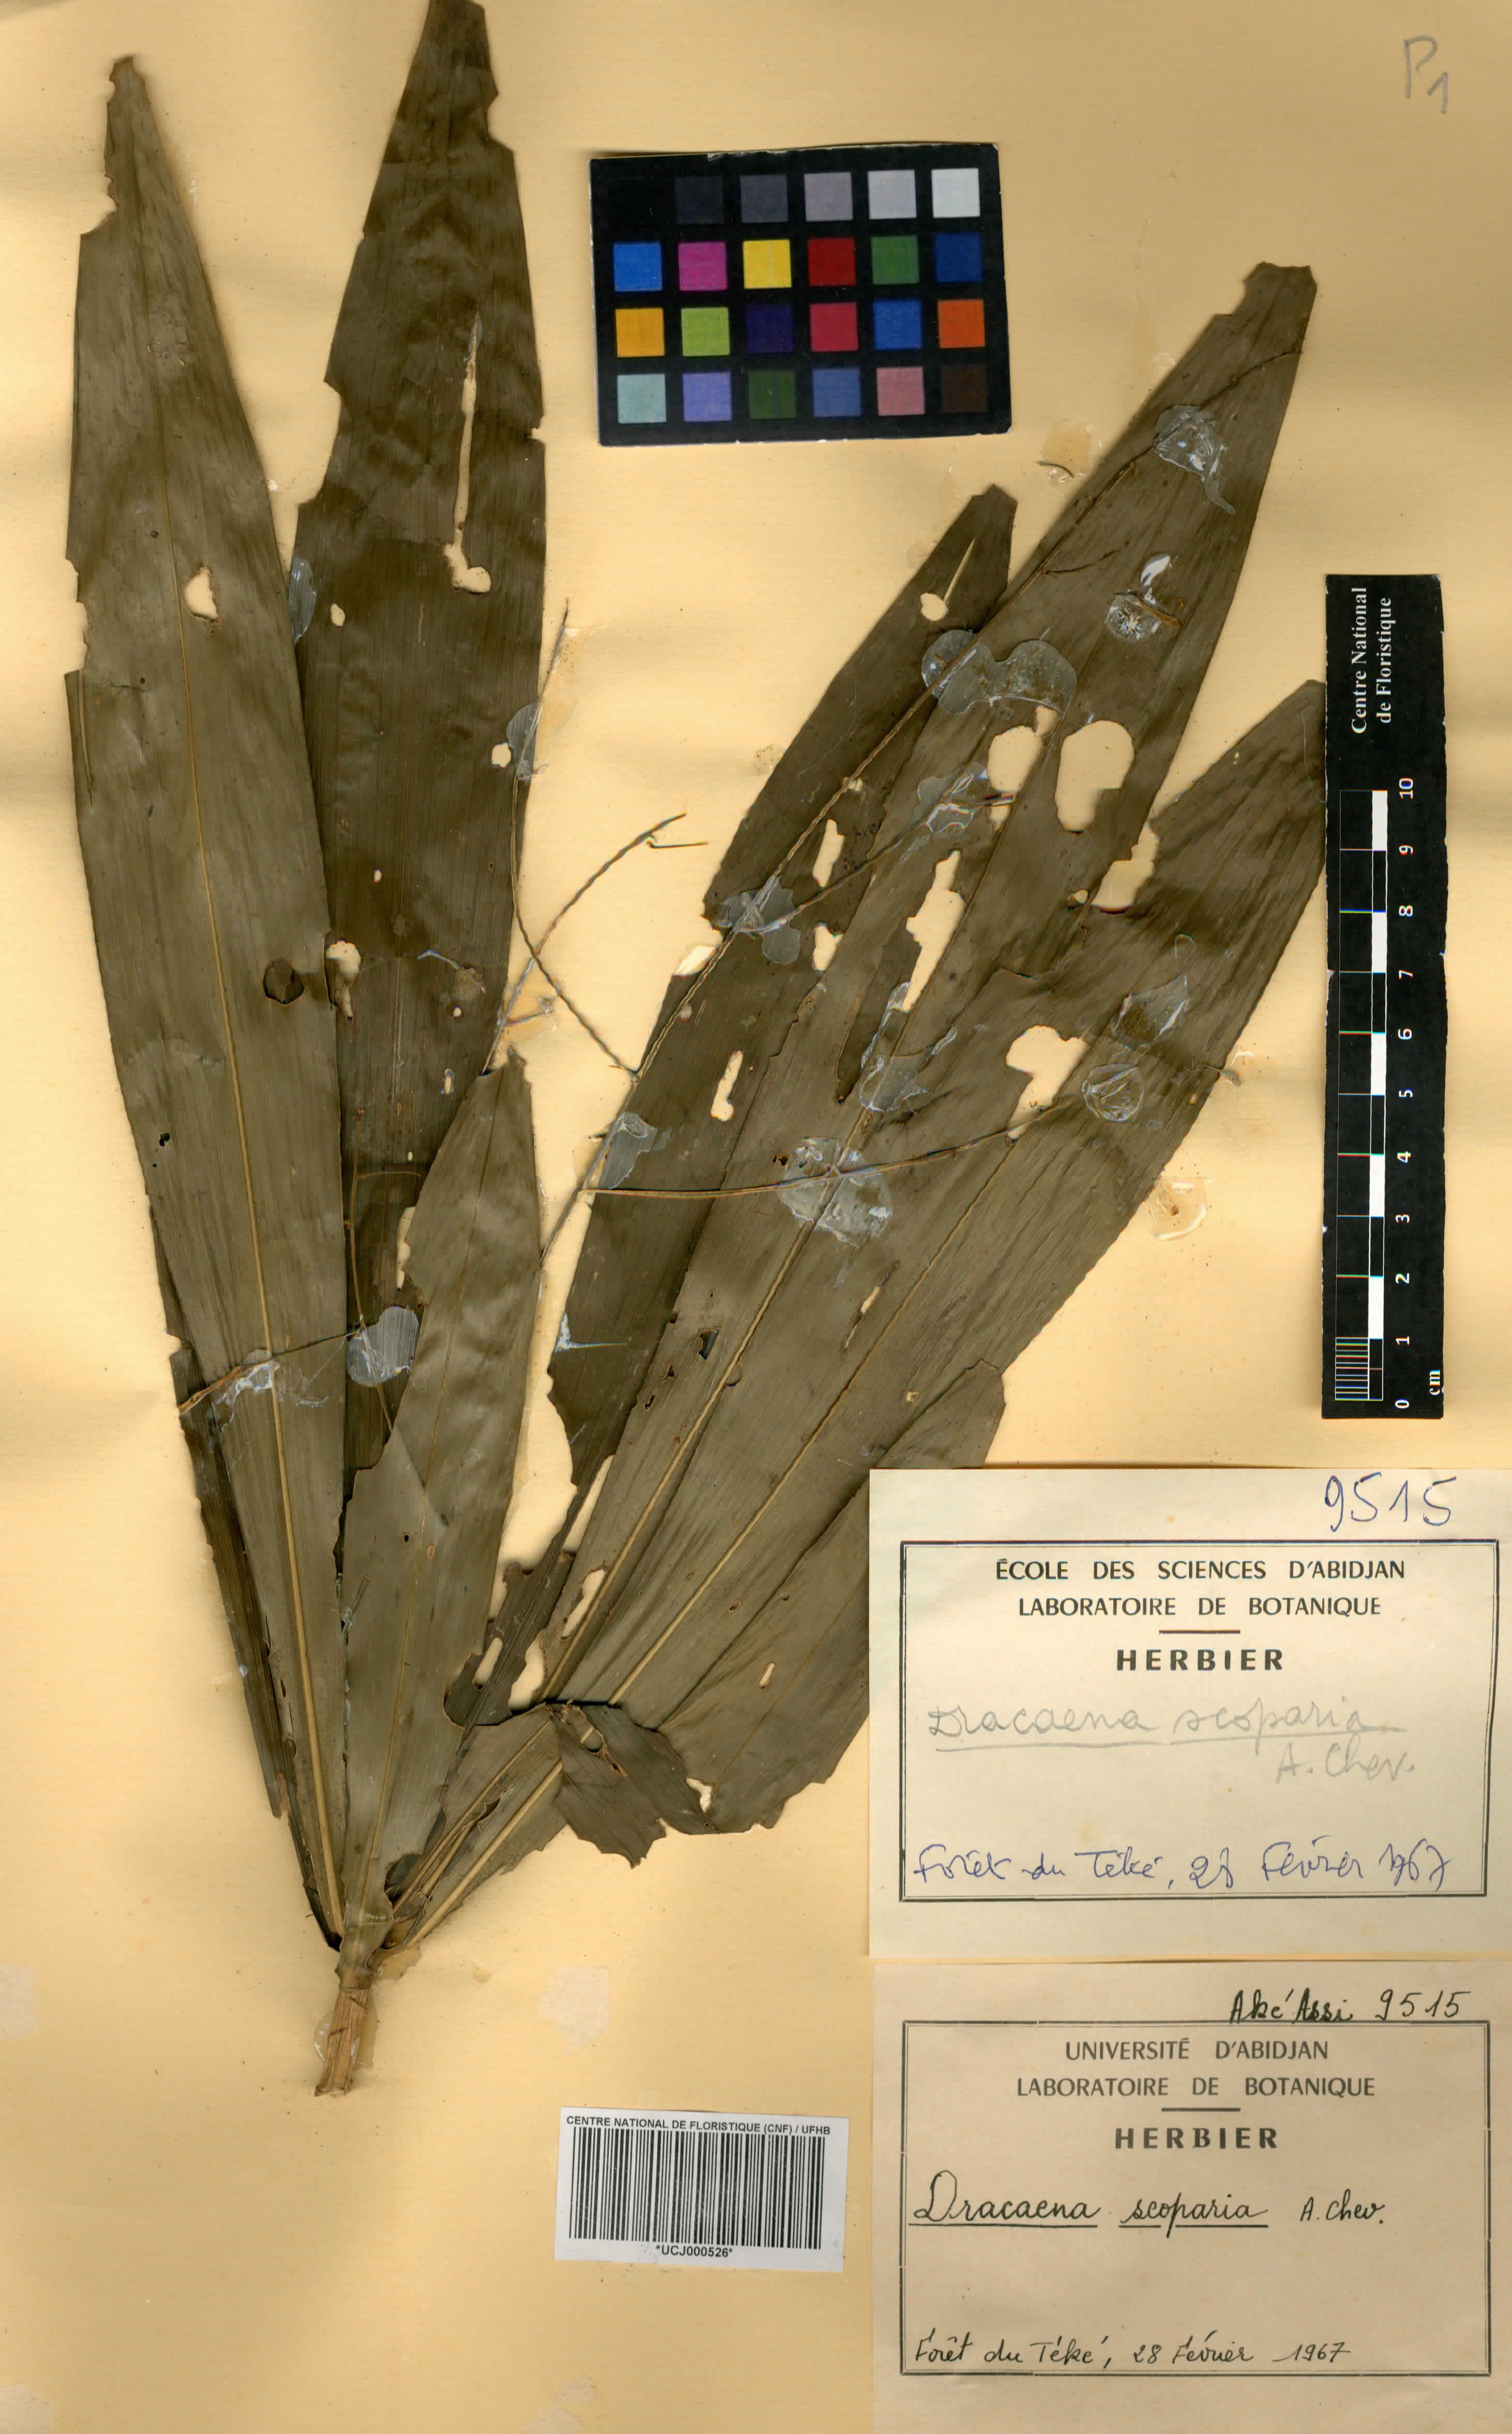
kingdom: Plantae
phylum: Tracheophyta
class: Liliopsida
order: Asparagales
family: Asparagaceae
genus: Dracaena
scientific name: Dracaena cerasifera
